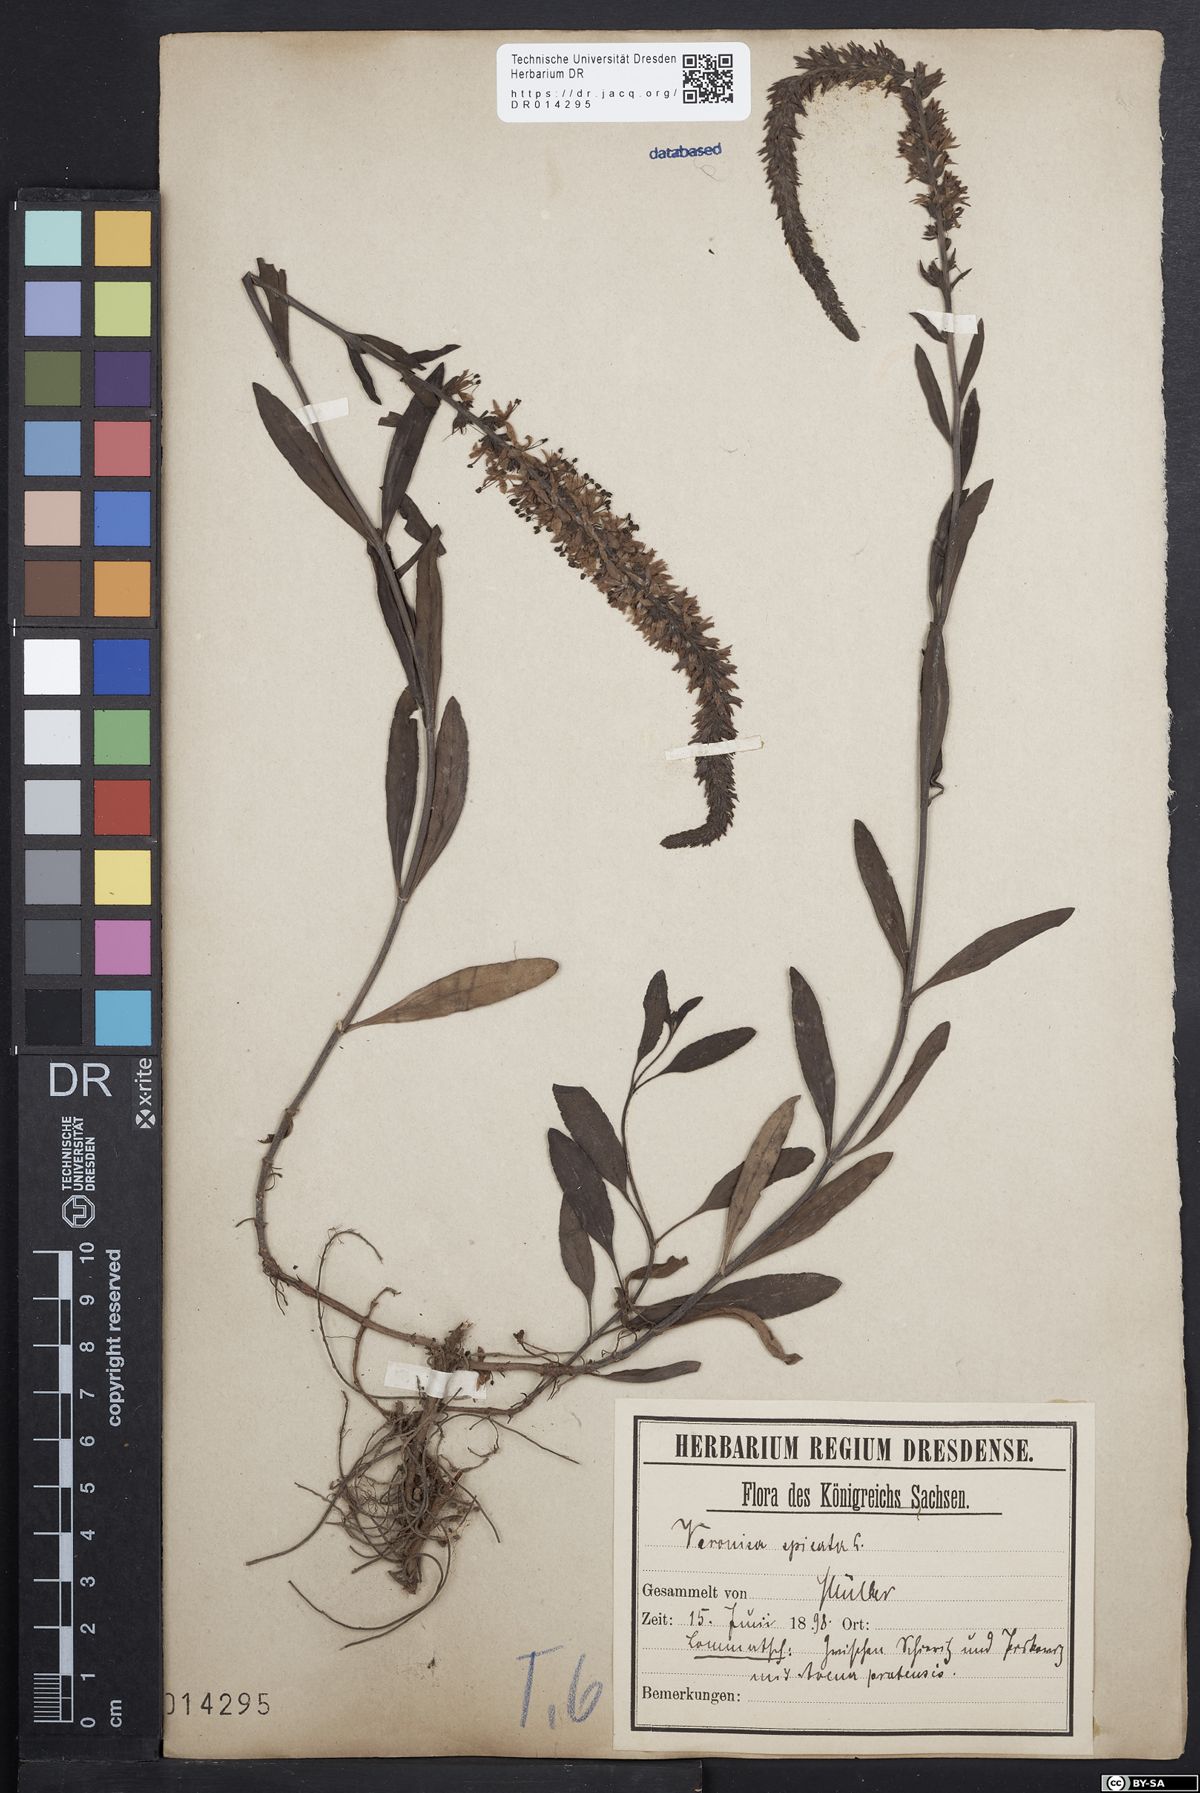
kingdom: Plantae
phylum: Tracheophyta
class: Magnoliopsida
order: Lamiales
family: Plantaginaceae
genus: Veronica
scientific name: Veronica spicata
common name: Spiked speedwell
